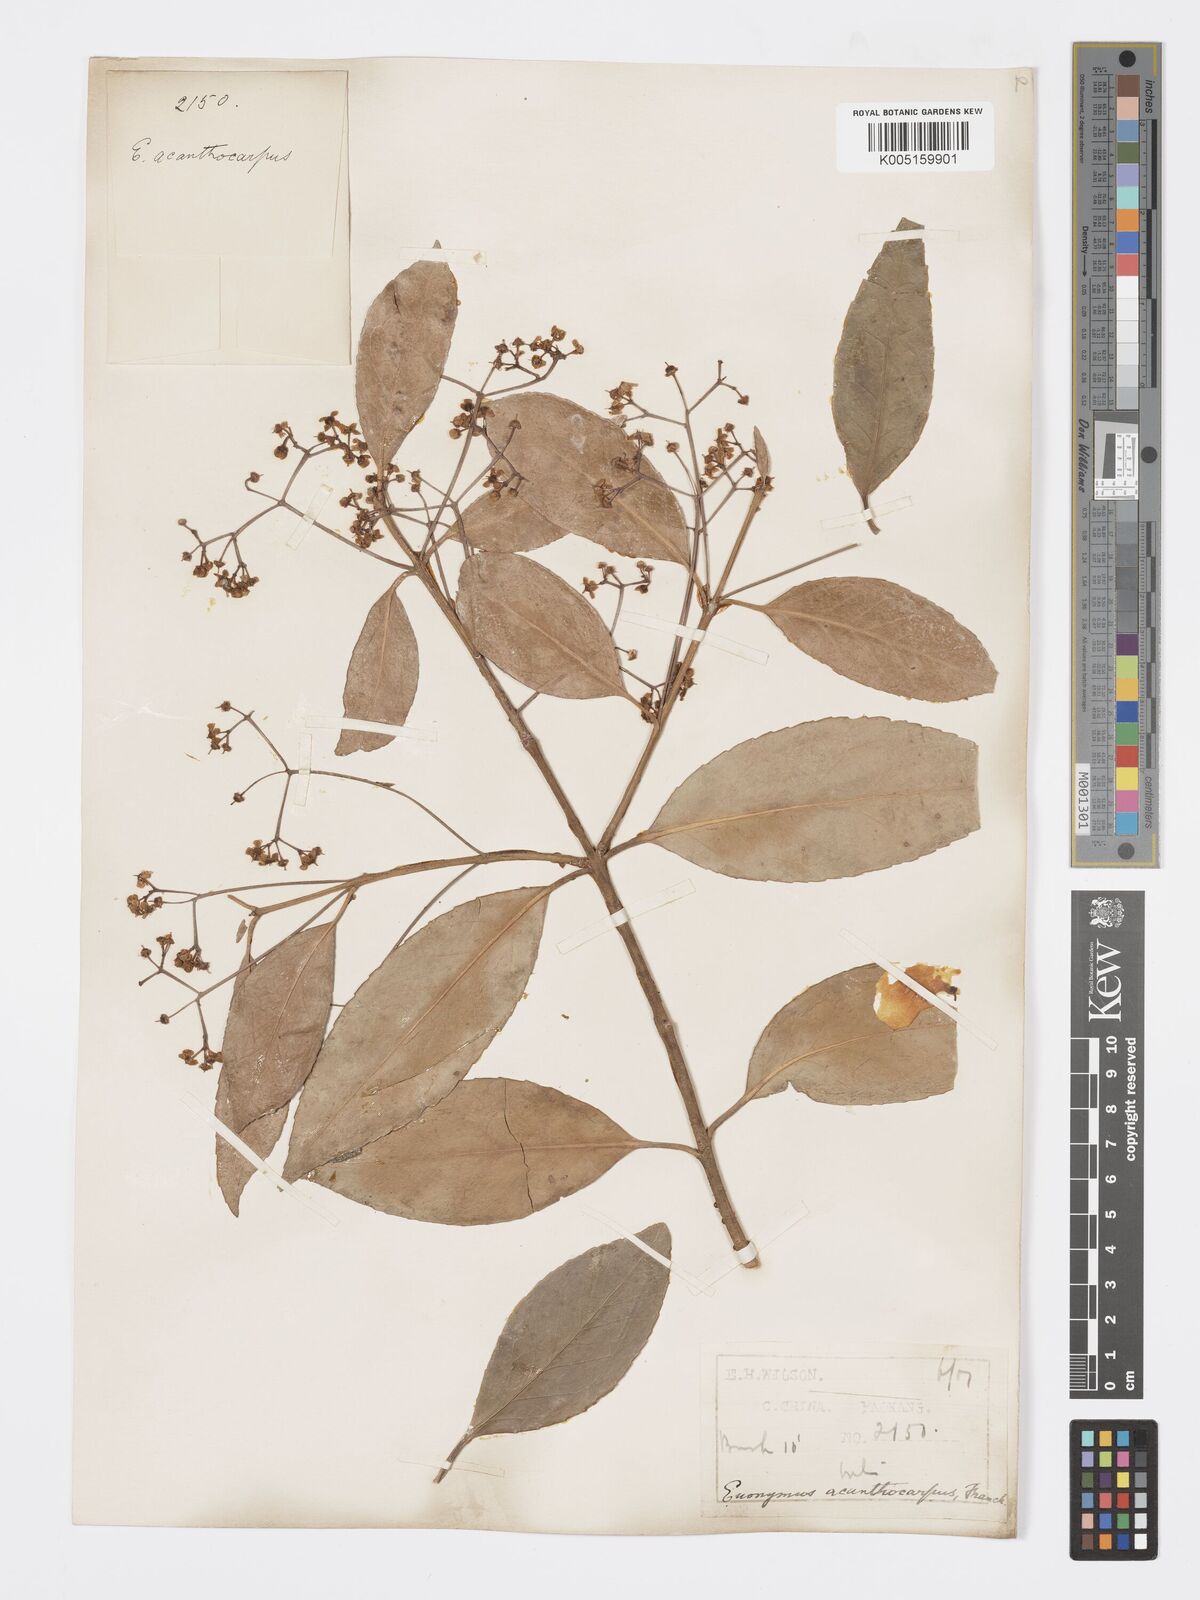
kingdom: Plantae
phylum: Tracheophyta
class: Magnoliopsida
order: Celastrales
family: Celastraceae
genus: Euonymus
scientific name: Euonymus acanthocarpus
